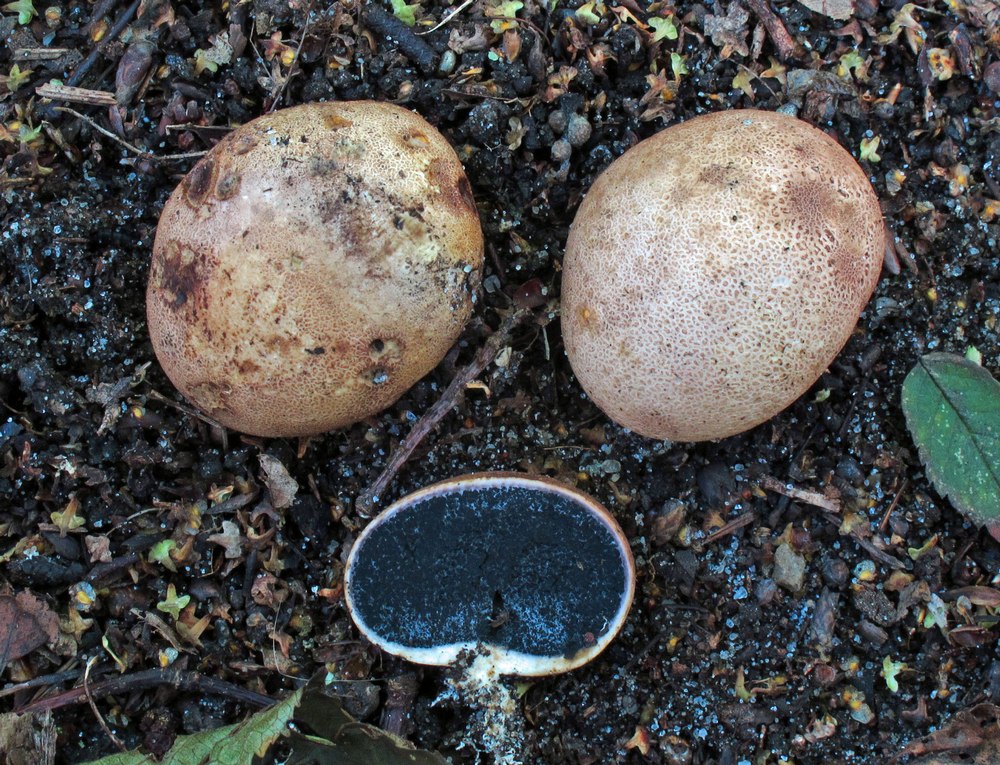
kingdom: Fungi
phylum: Basidiomycota
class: Agaricomycetes
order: Boletales
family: Sclerodermataceae
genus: Scleroderma
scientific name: Scleroderma areolatum
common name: plettet bruskbold
